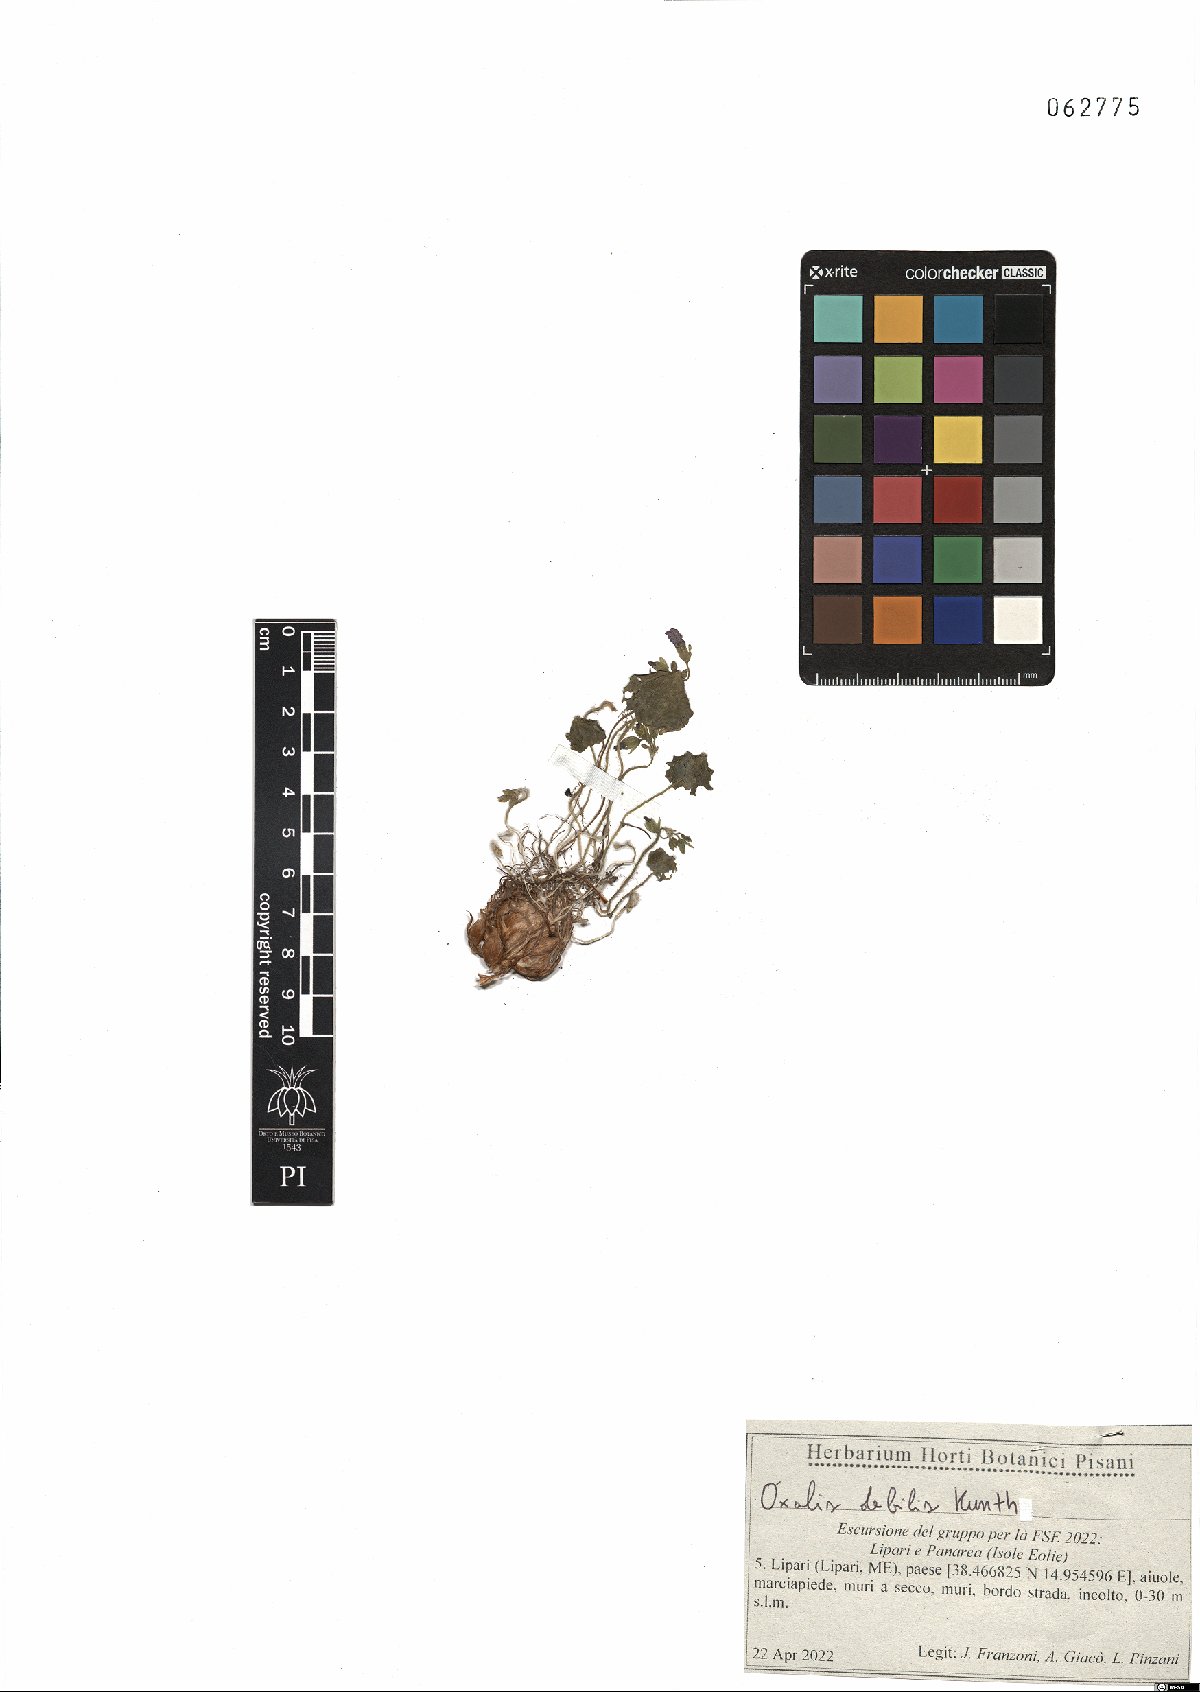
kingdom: Plantae
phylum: Tracheophyta
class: Magnoliopsida
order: Oxalidales
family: Oxalidaceae
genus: Oxalis
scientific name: Oxalis debilis
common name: Large-flowered pink-sorrel
